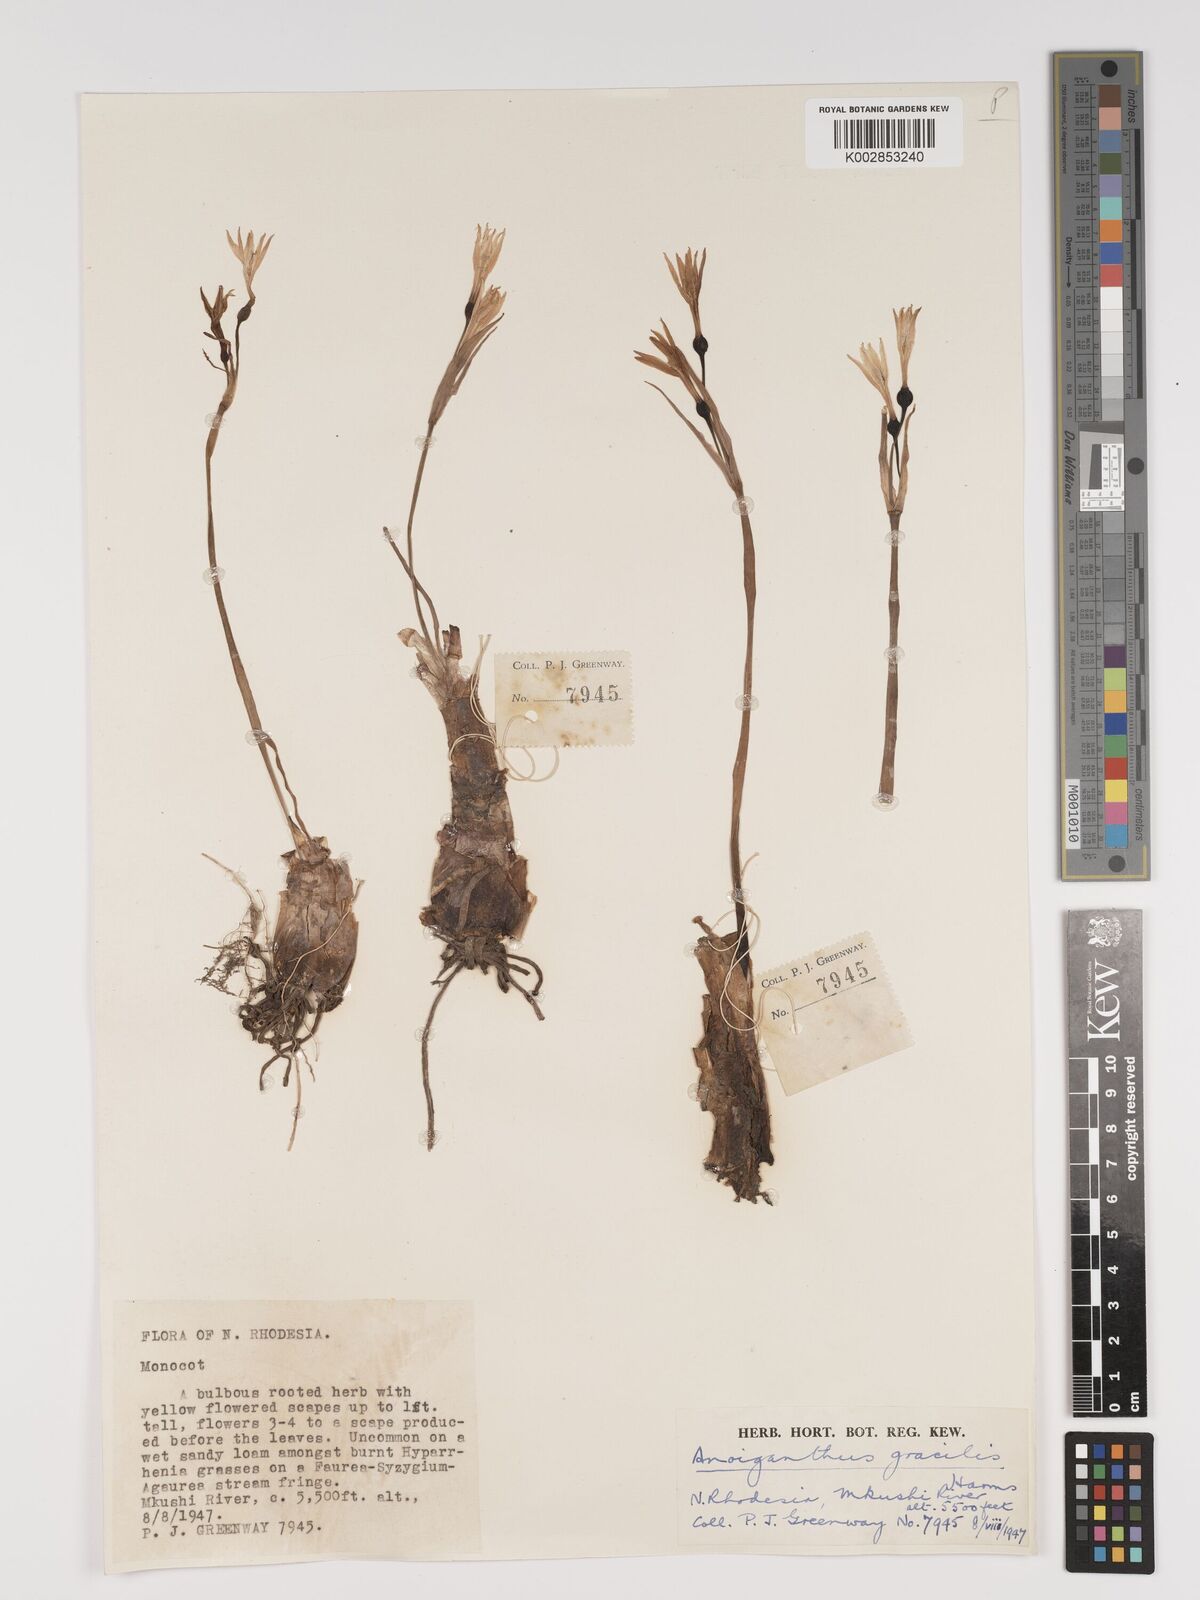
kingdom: Plantae
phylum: Tracheophyta
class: Liliopsida
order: Asparagales
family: Amaryllidaceae
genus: Cyrtanthus
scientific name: Cyrtanthus breviflorus
